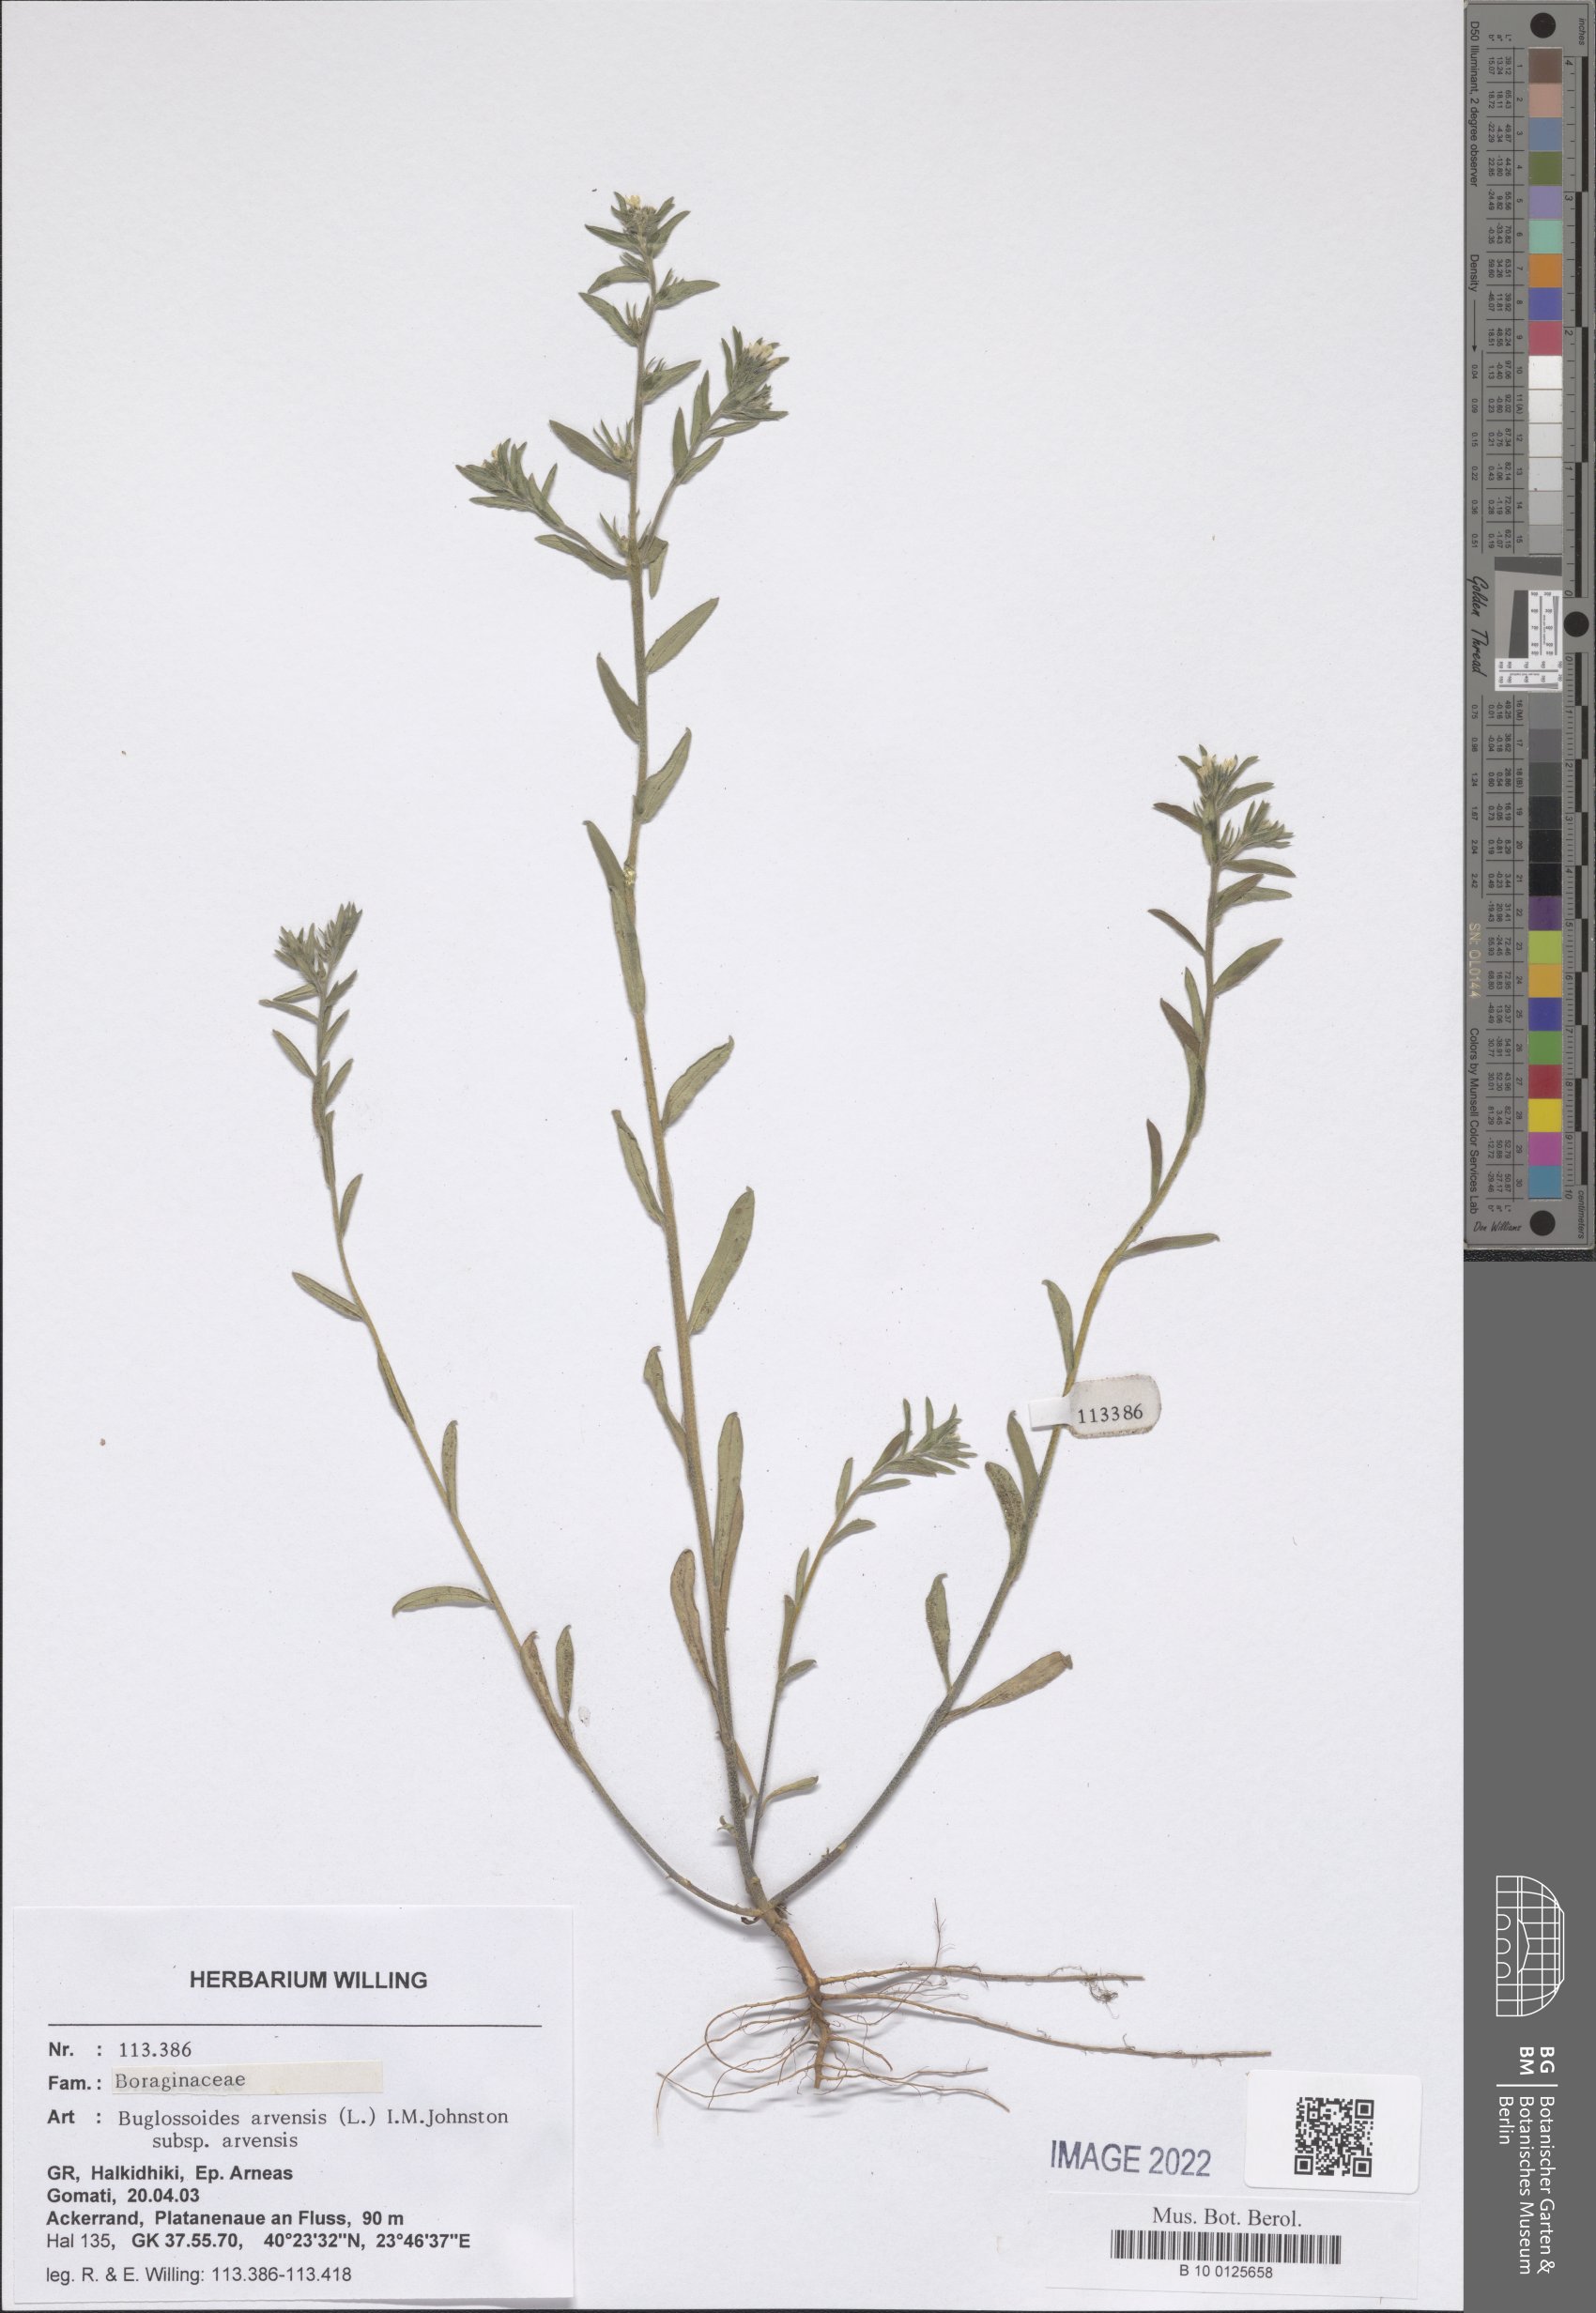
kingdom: Plantae
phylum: Tracheophyta
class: Magnoliopsida
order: Boraginales
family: Boraginaceae
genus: Buglossoides
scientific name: Buglossoides arvensis
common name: Corn gromwell
